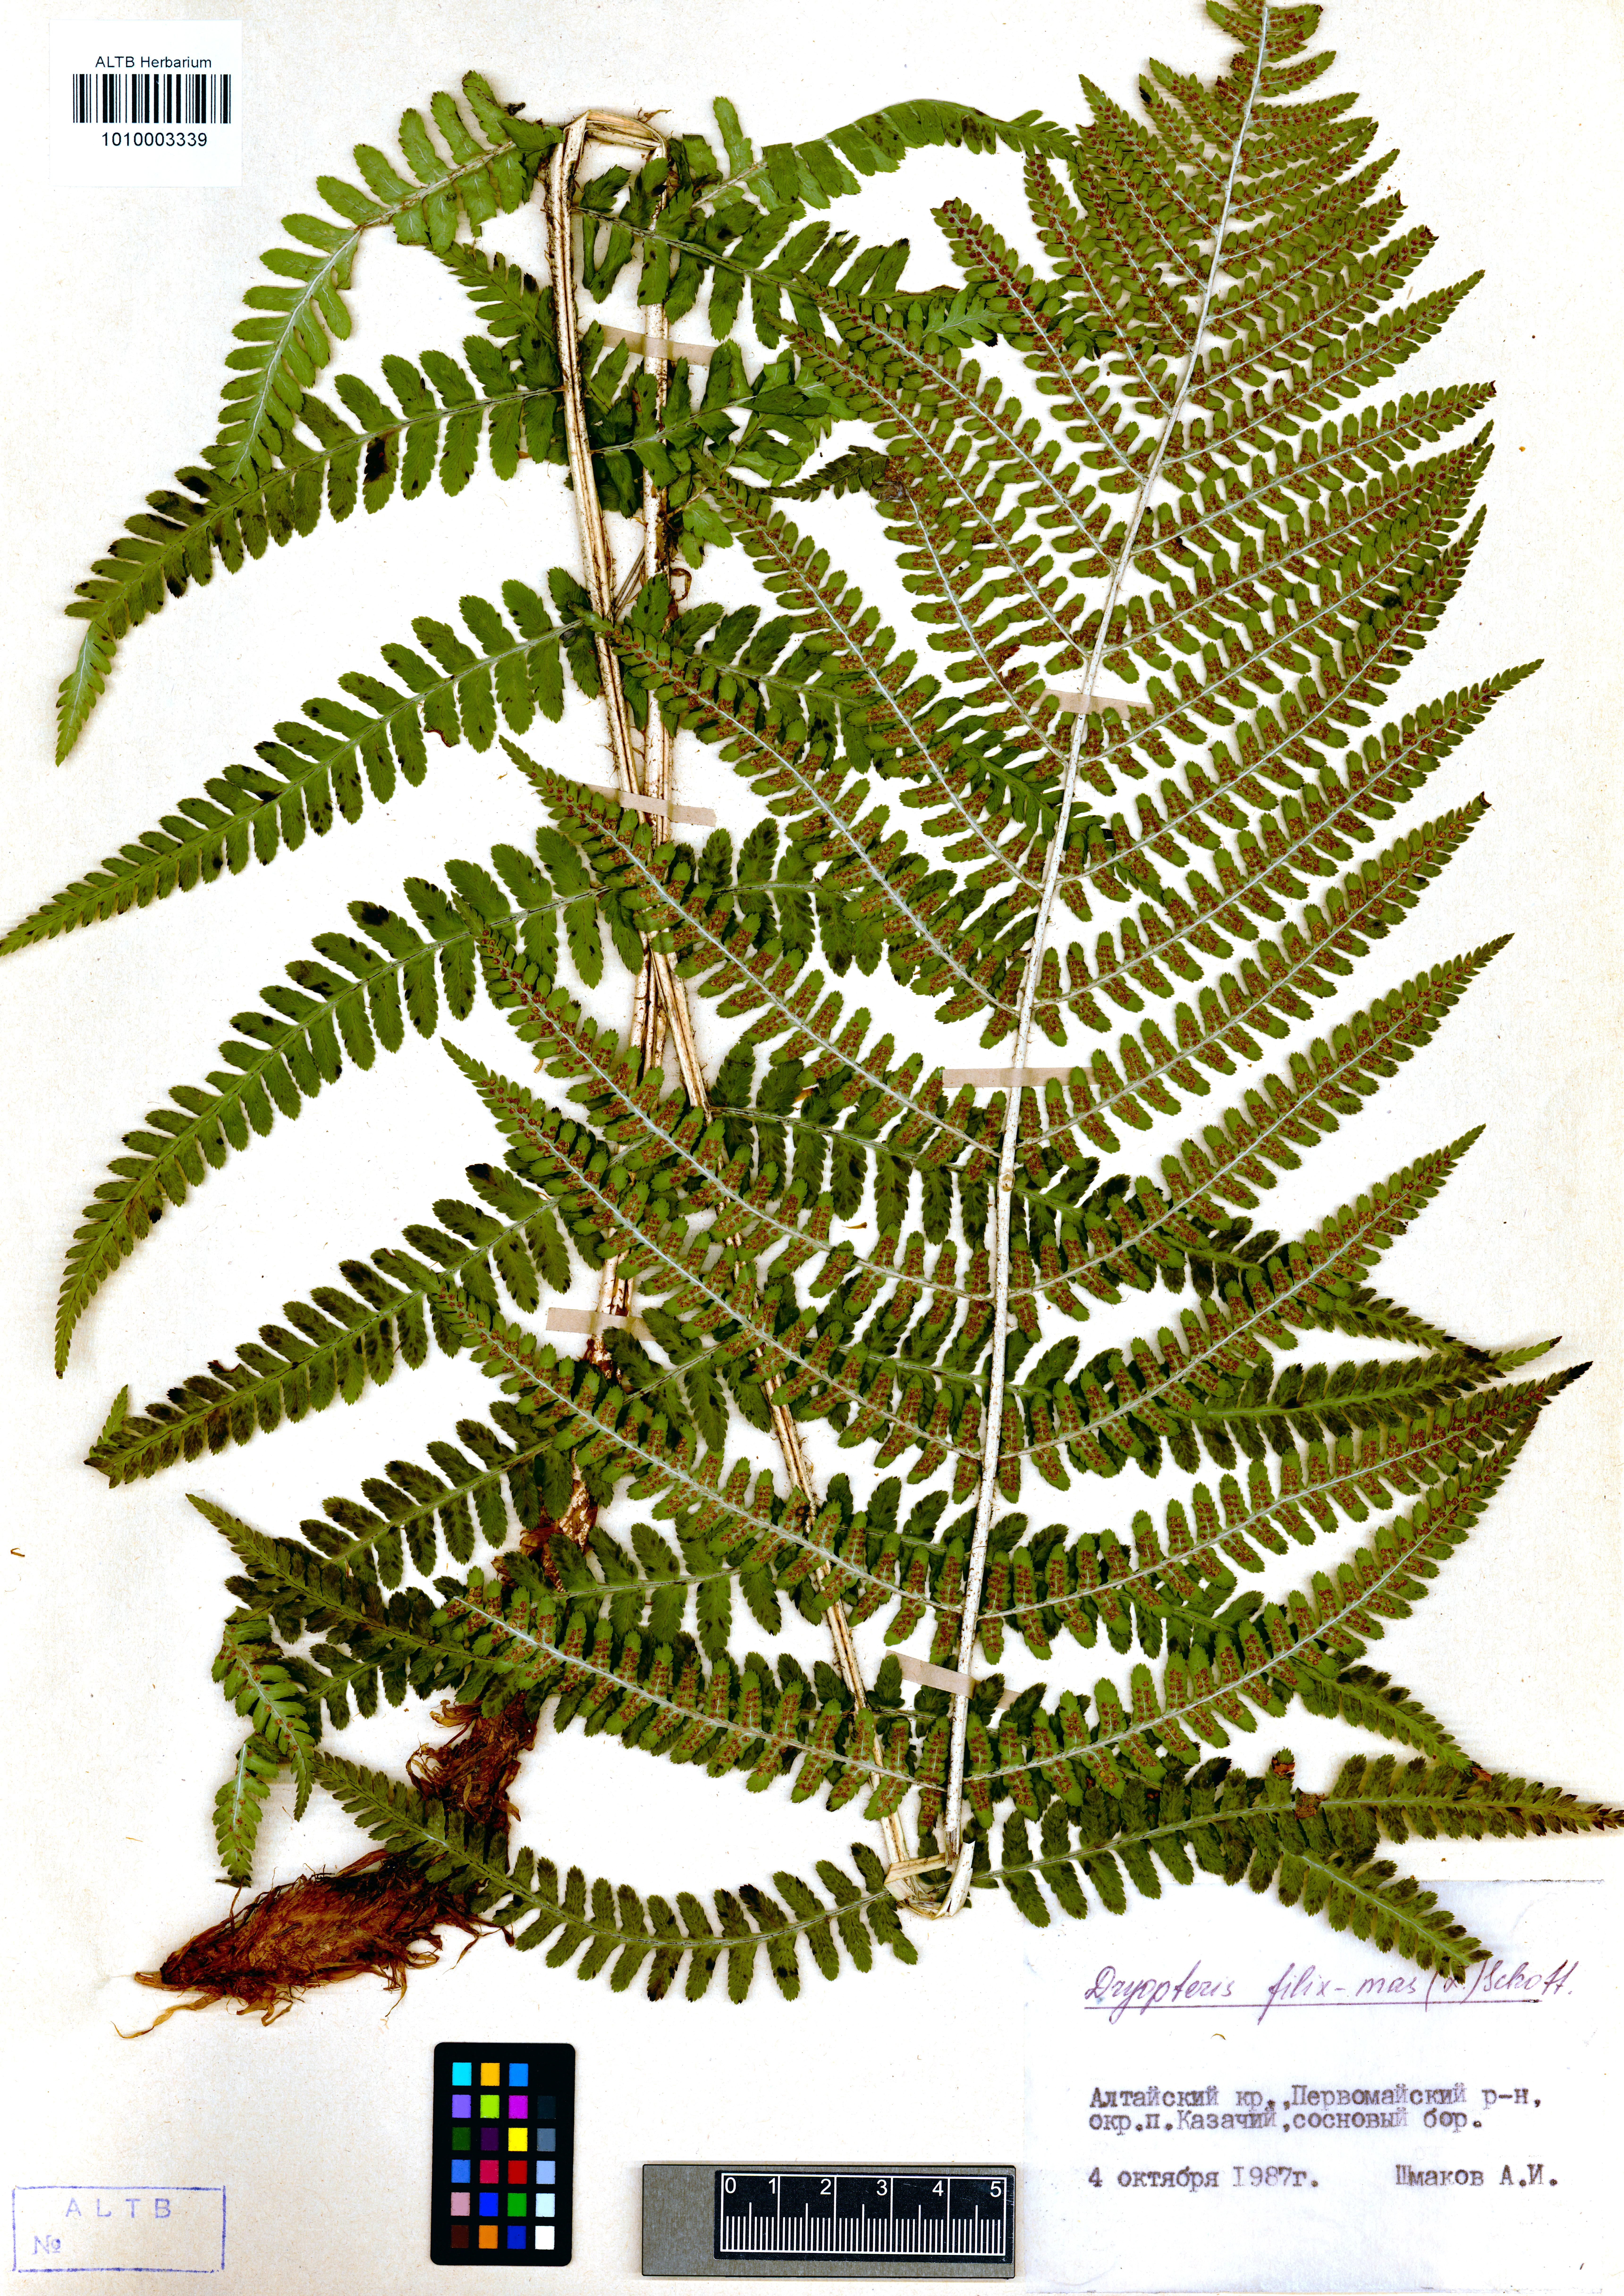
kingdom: Plantae
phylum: Tracheophyta
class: Polypodiopsida
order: Polypodiales
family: Dryopteridaceae
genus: Dryopteris
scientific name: Dryopteris filix-mas
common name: Male fern
